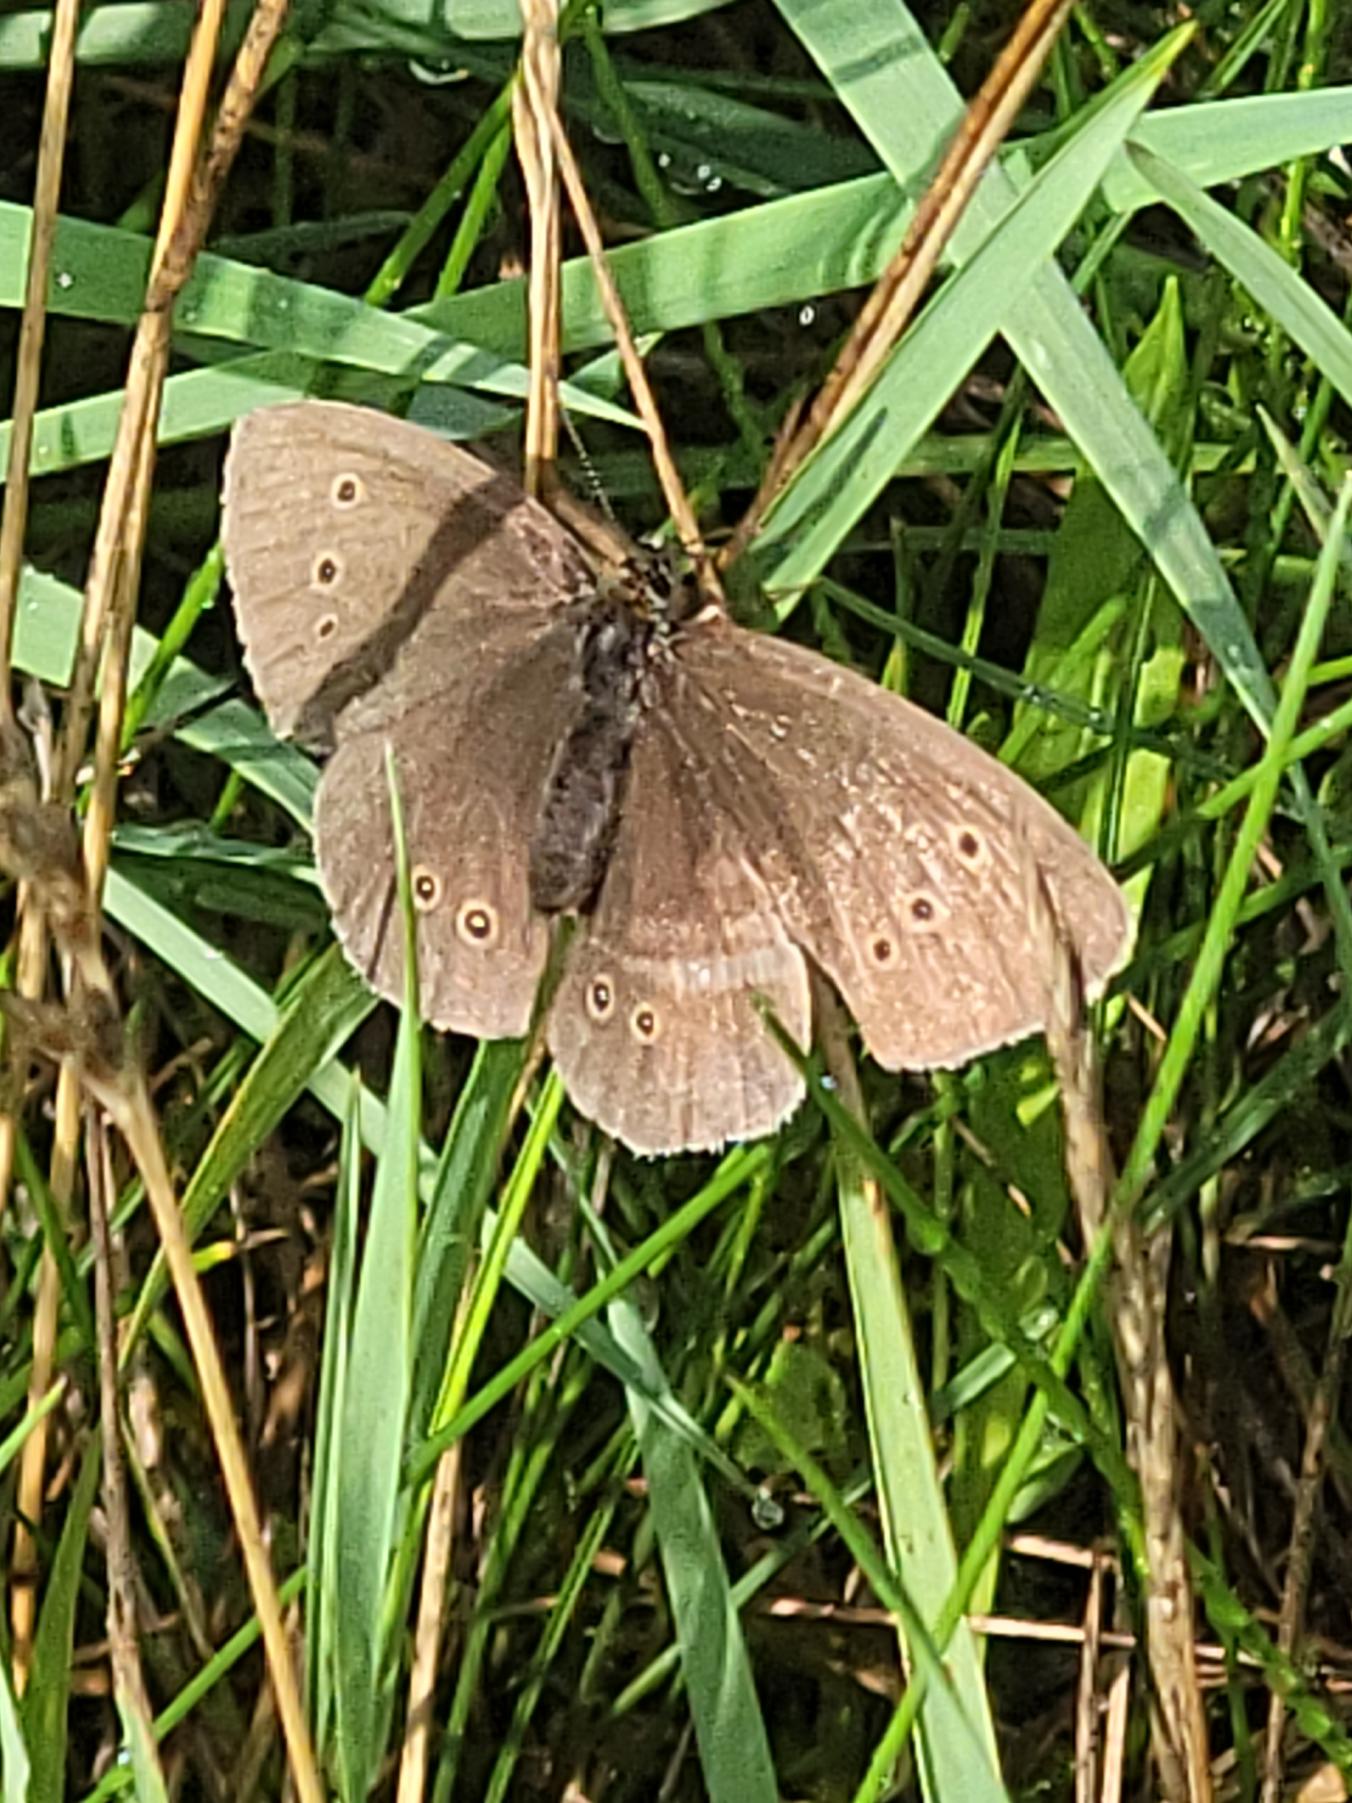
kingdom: Animalia
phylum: Arthropoda
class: Insecta
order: Lepidoptera
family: Nymphalidae
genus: Aphantopus
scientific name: Aphantopus hyperantus
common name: Engrandøje
